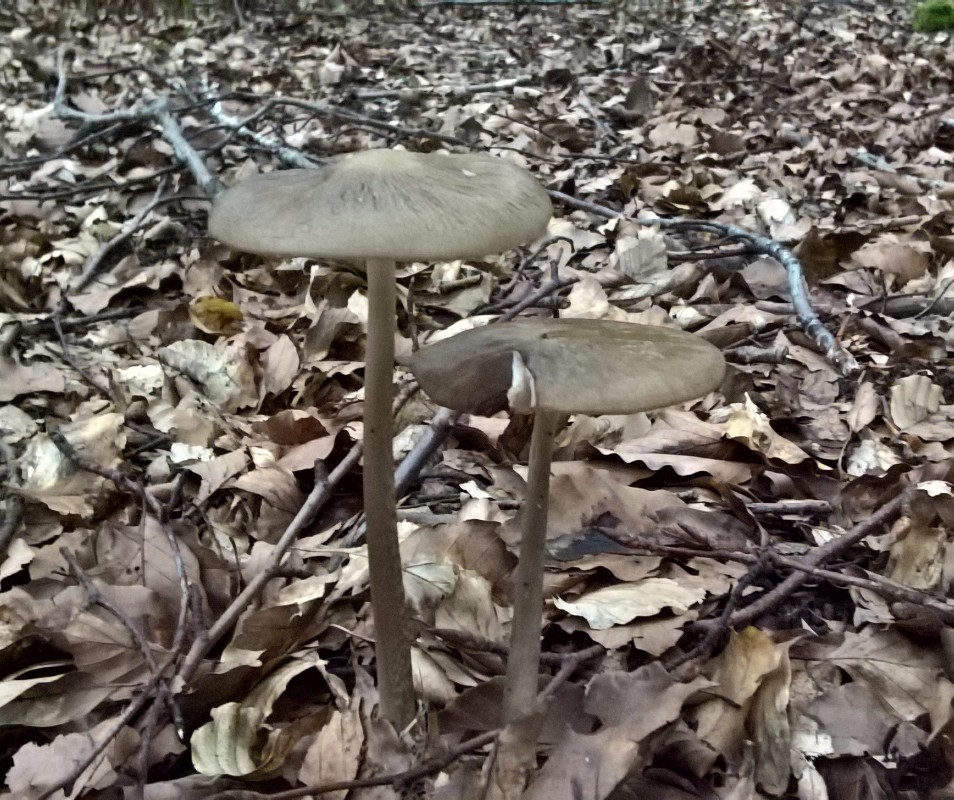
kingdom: Fungi
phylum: Basidiomycota
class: Agaricomycetes
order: Agaricales
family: Physalacriaceae
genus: Hymenopellis
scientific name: Hymenopellis radicata
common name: almindelig pælerodshat
